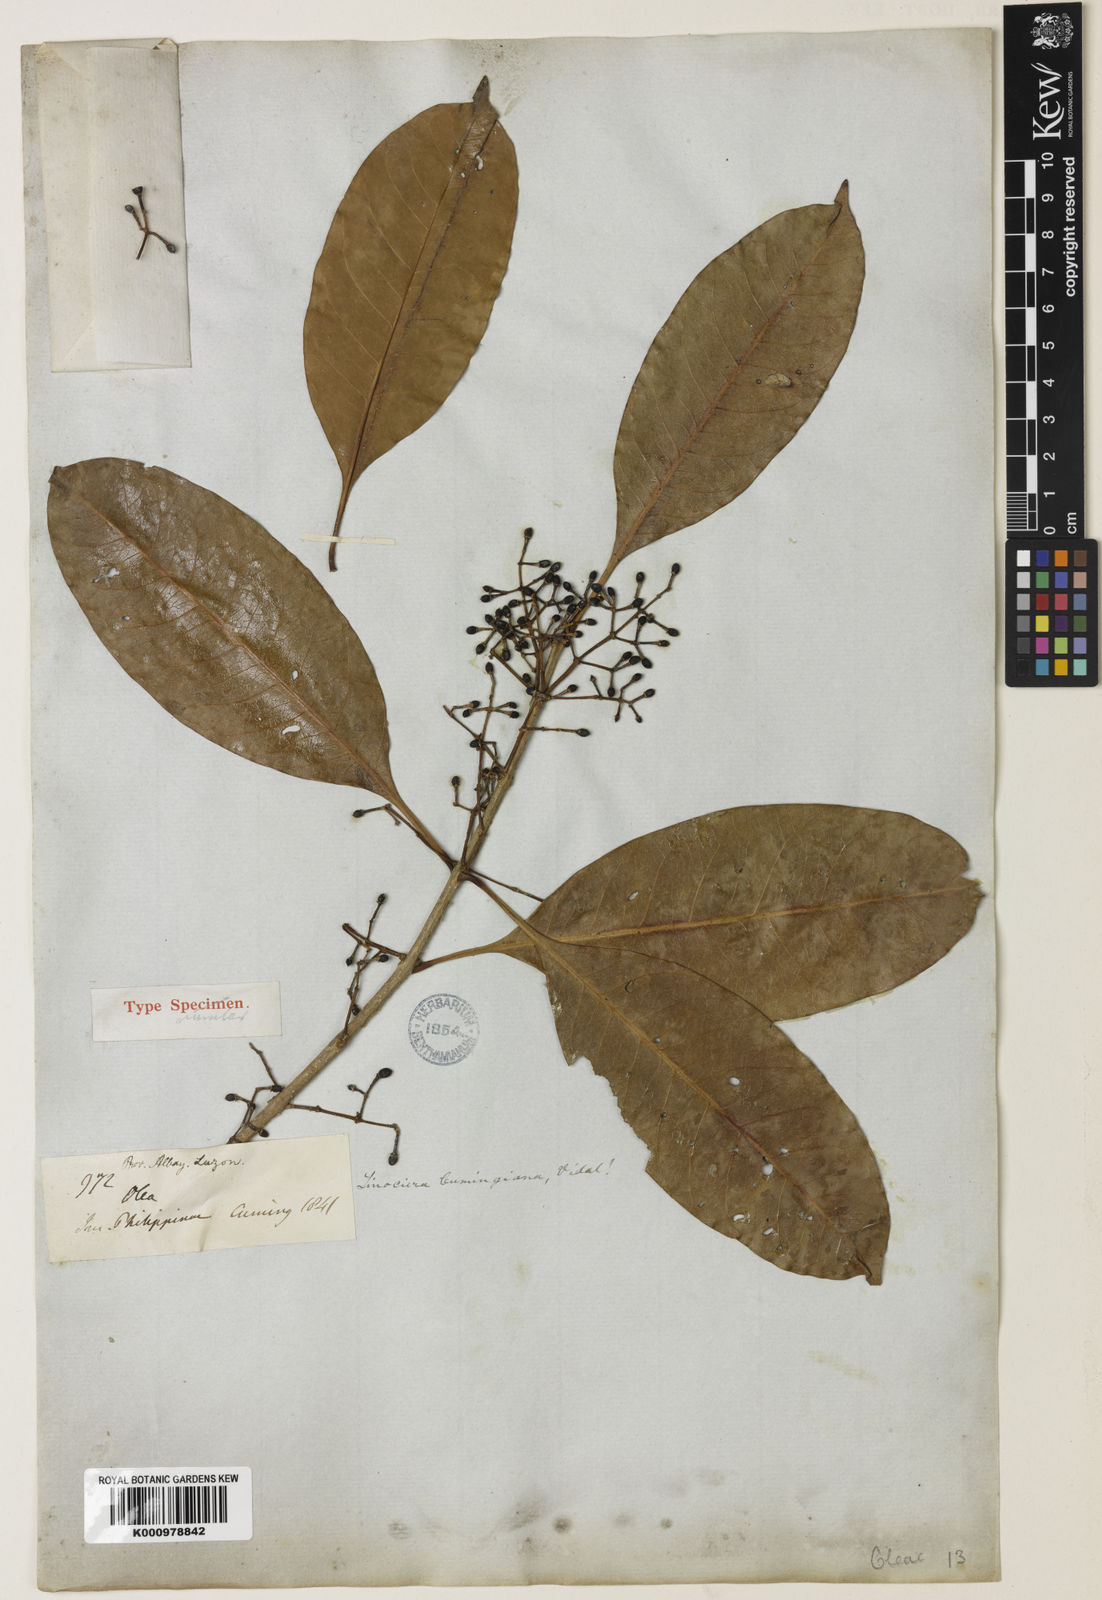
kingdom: Plantae
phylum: Tracheophyta
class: Magnoliopsida
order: Lamiales
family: Oleaceae
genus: Chionanthus
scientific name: Chionanthus ramiflorus
